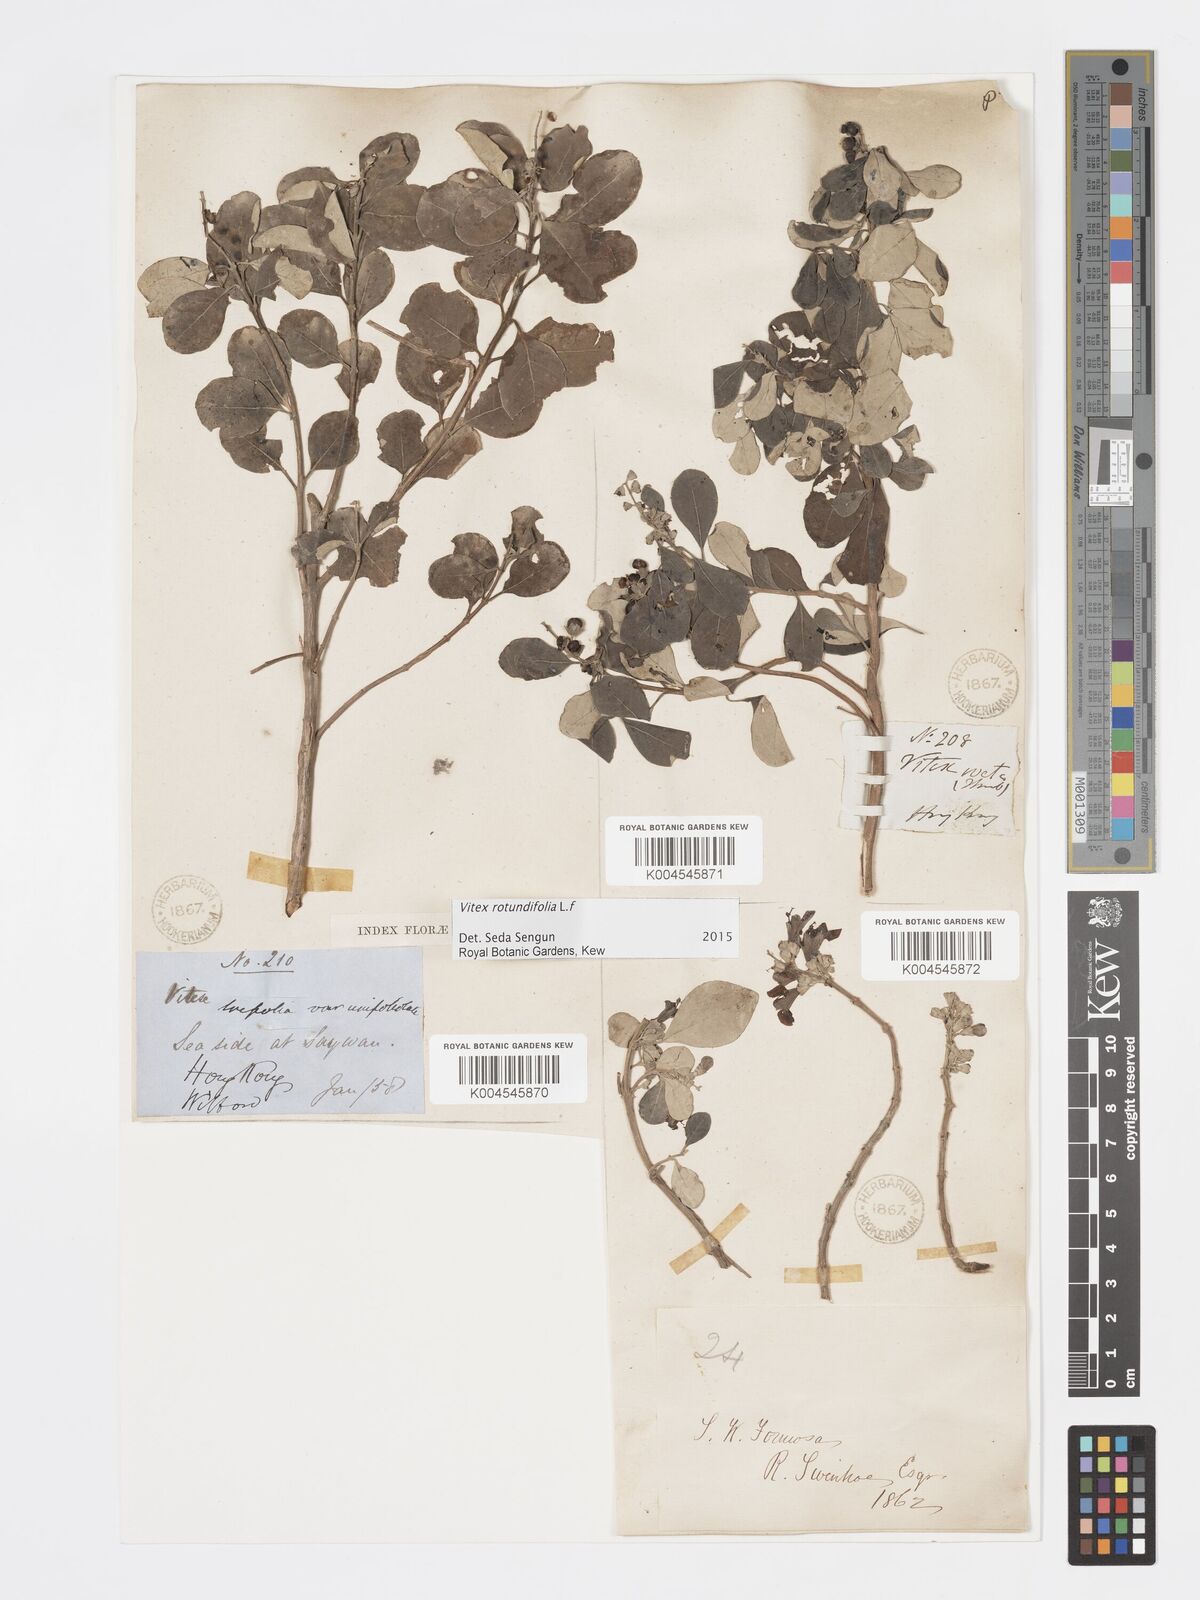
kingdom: Plantae
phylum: Tracheophyta
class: Magnoliopsida
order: Lamiales
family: Lamiaceae
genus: Vitex
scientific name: Vitex rotundifolia
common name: Beach vitex
